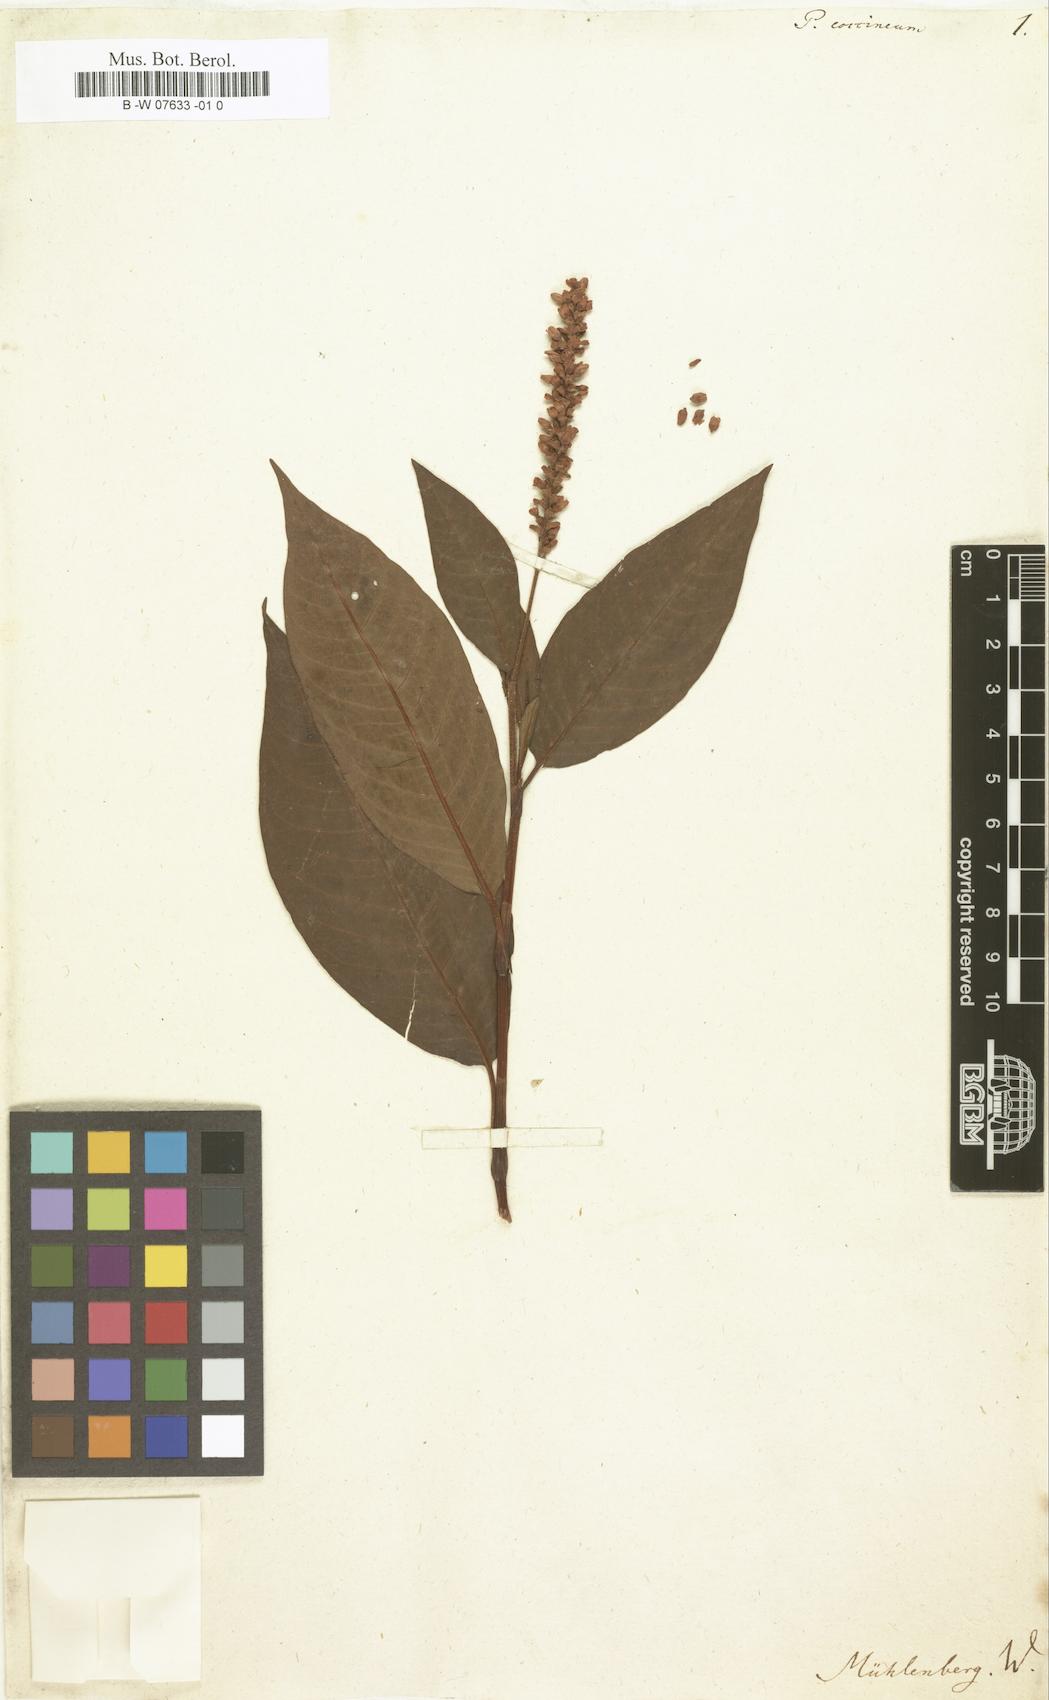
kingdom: Plantae
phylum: Tracheophyta
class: Magnoliopsida
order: Caryophyllales
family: Polygonaceae
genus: Persicaria
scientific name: Persicaria amphibia
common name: Amphibious bistort
